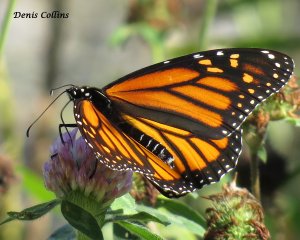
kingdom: Animalia
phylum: Arthropoda
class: Insecta
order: Lepidoptera
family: Nymphalidae
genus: Danaus
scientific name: Danaus plexippus
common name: Monarch
